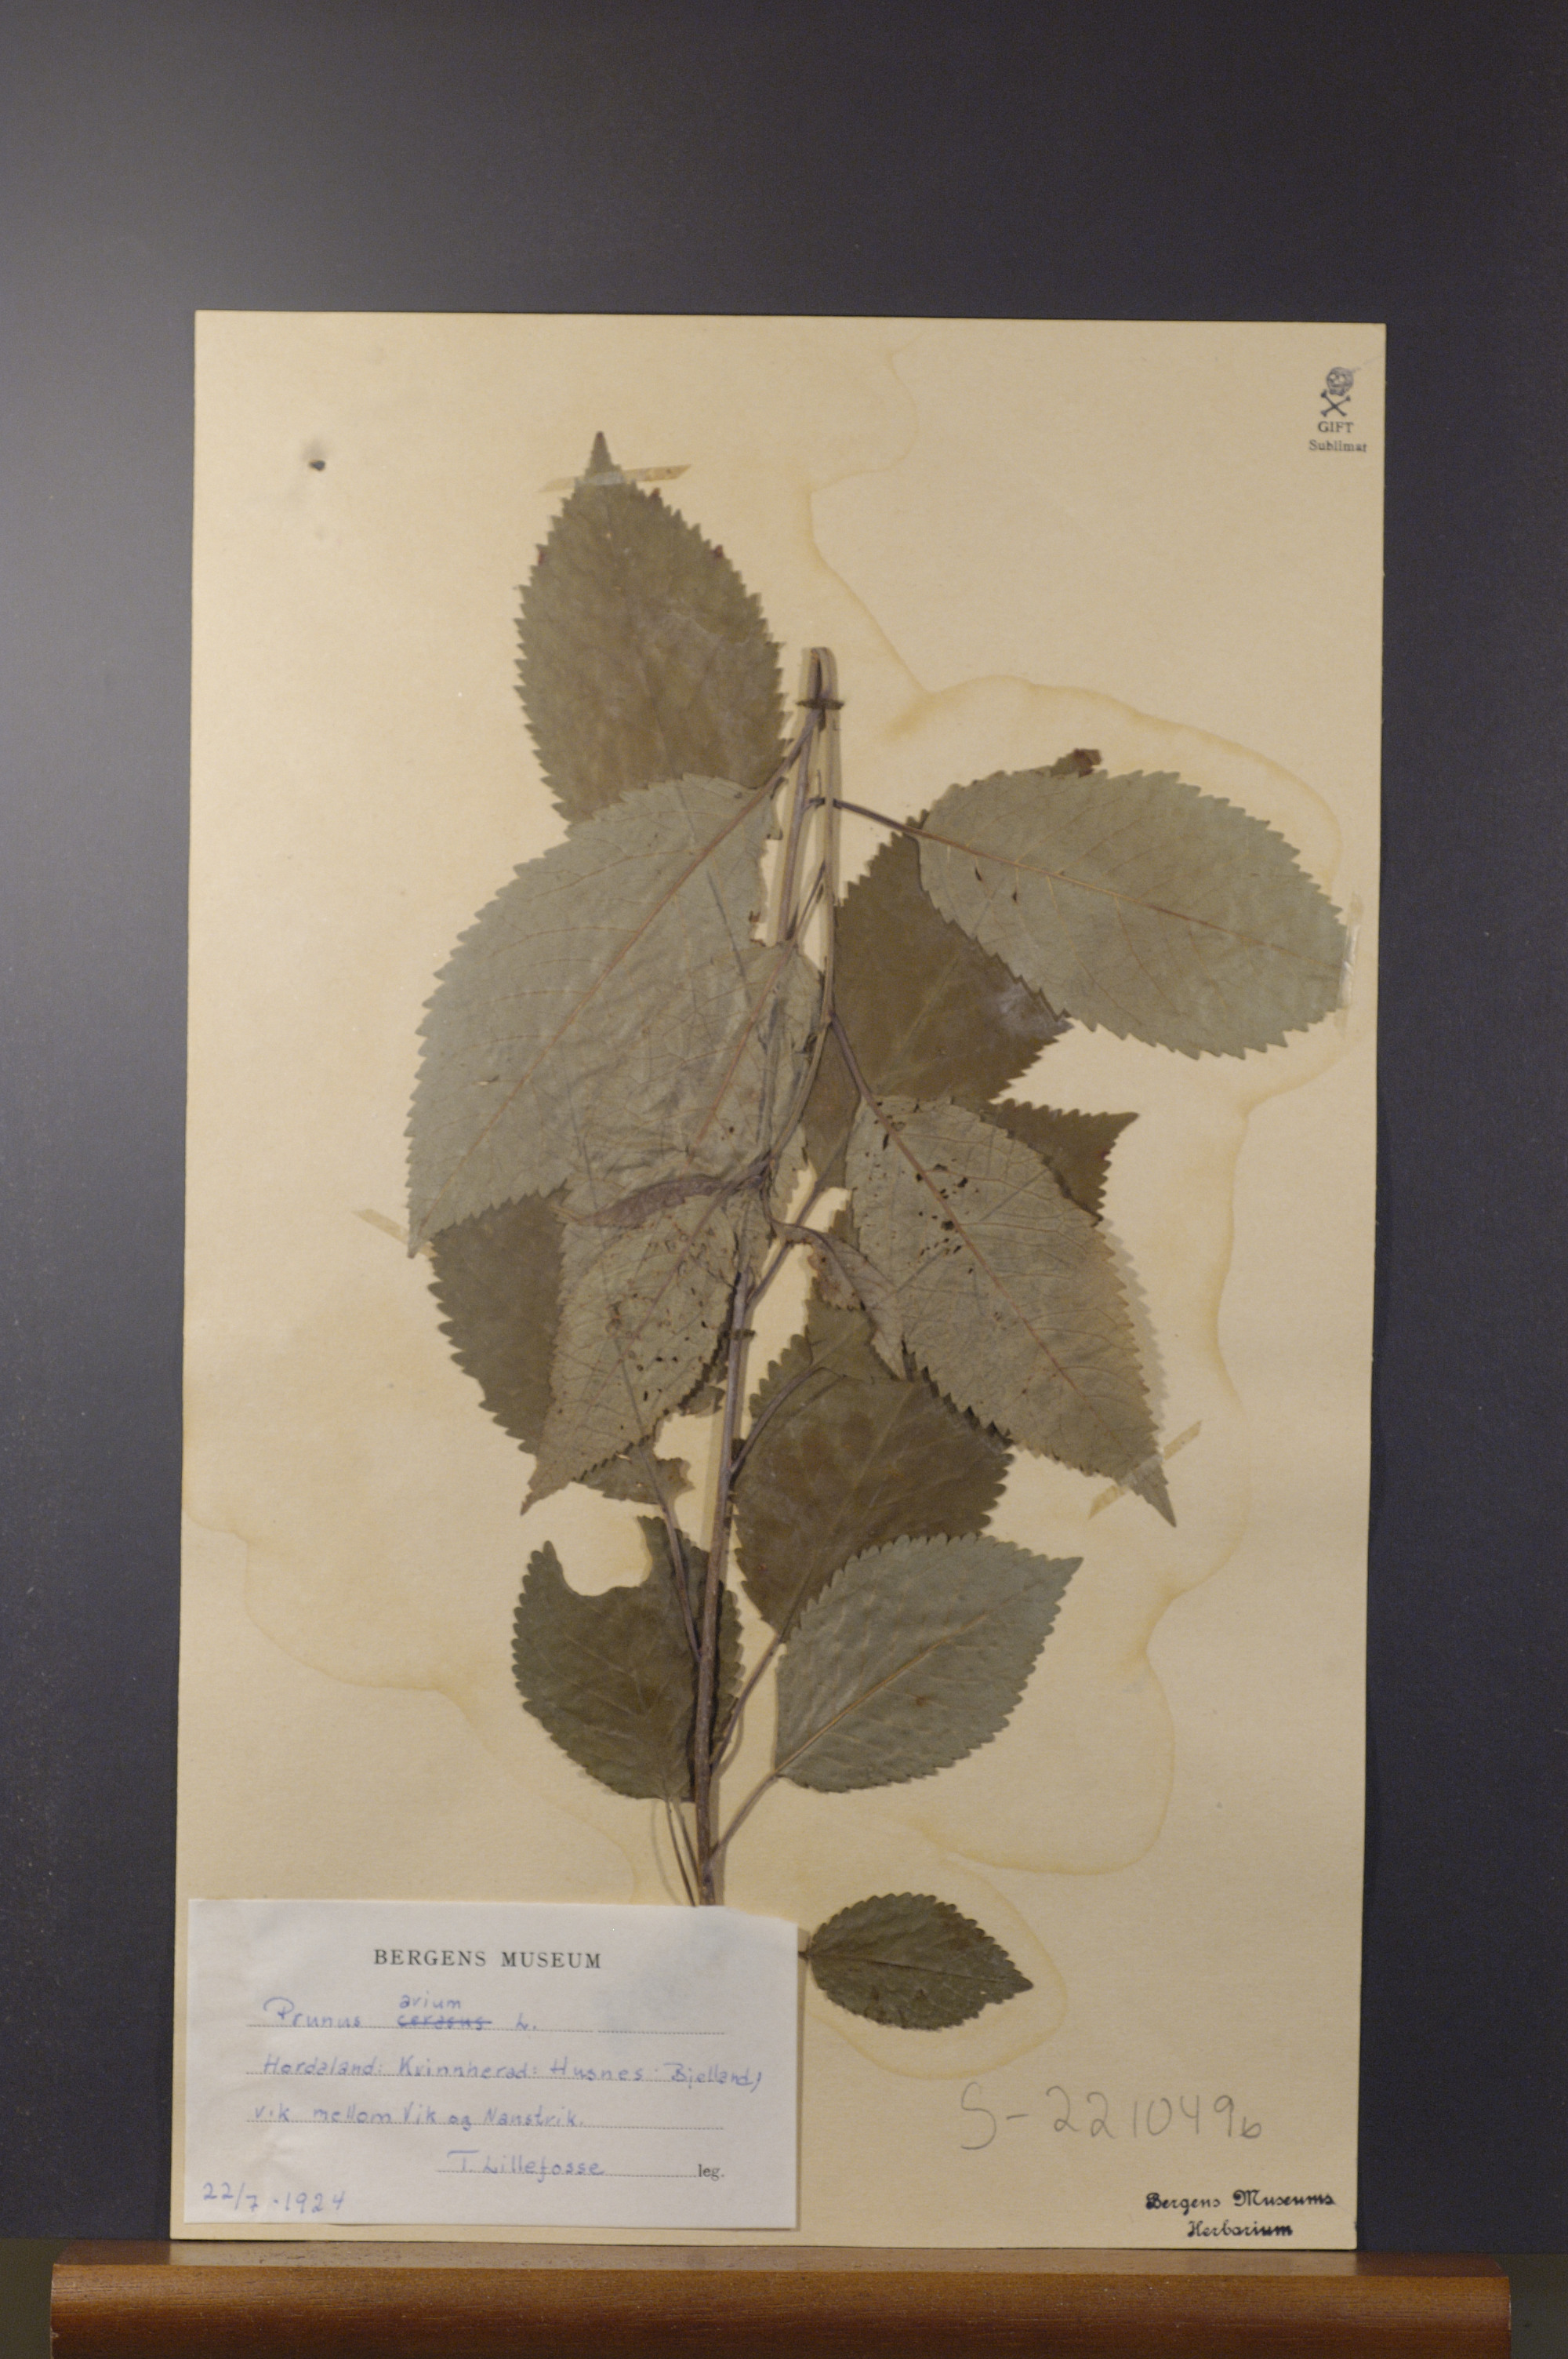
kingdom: Plantae
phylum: Tracheophyta
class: Magnoliopsida
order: Rosales
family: Rosaceae
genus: Prunus
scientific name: Prunus avium
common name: Sweet cherry
